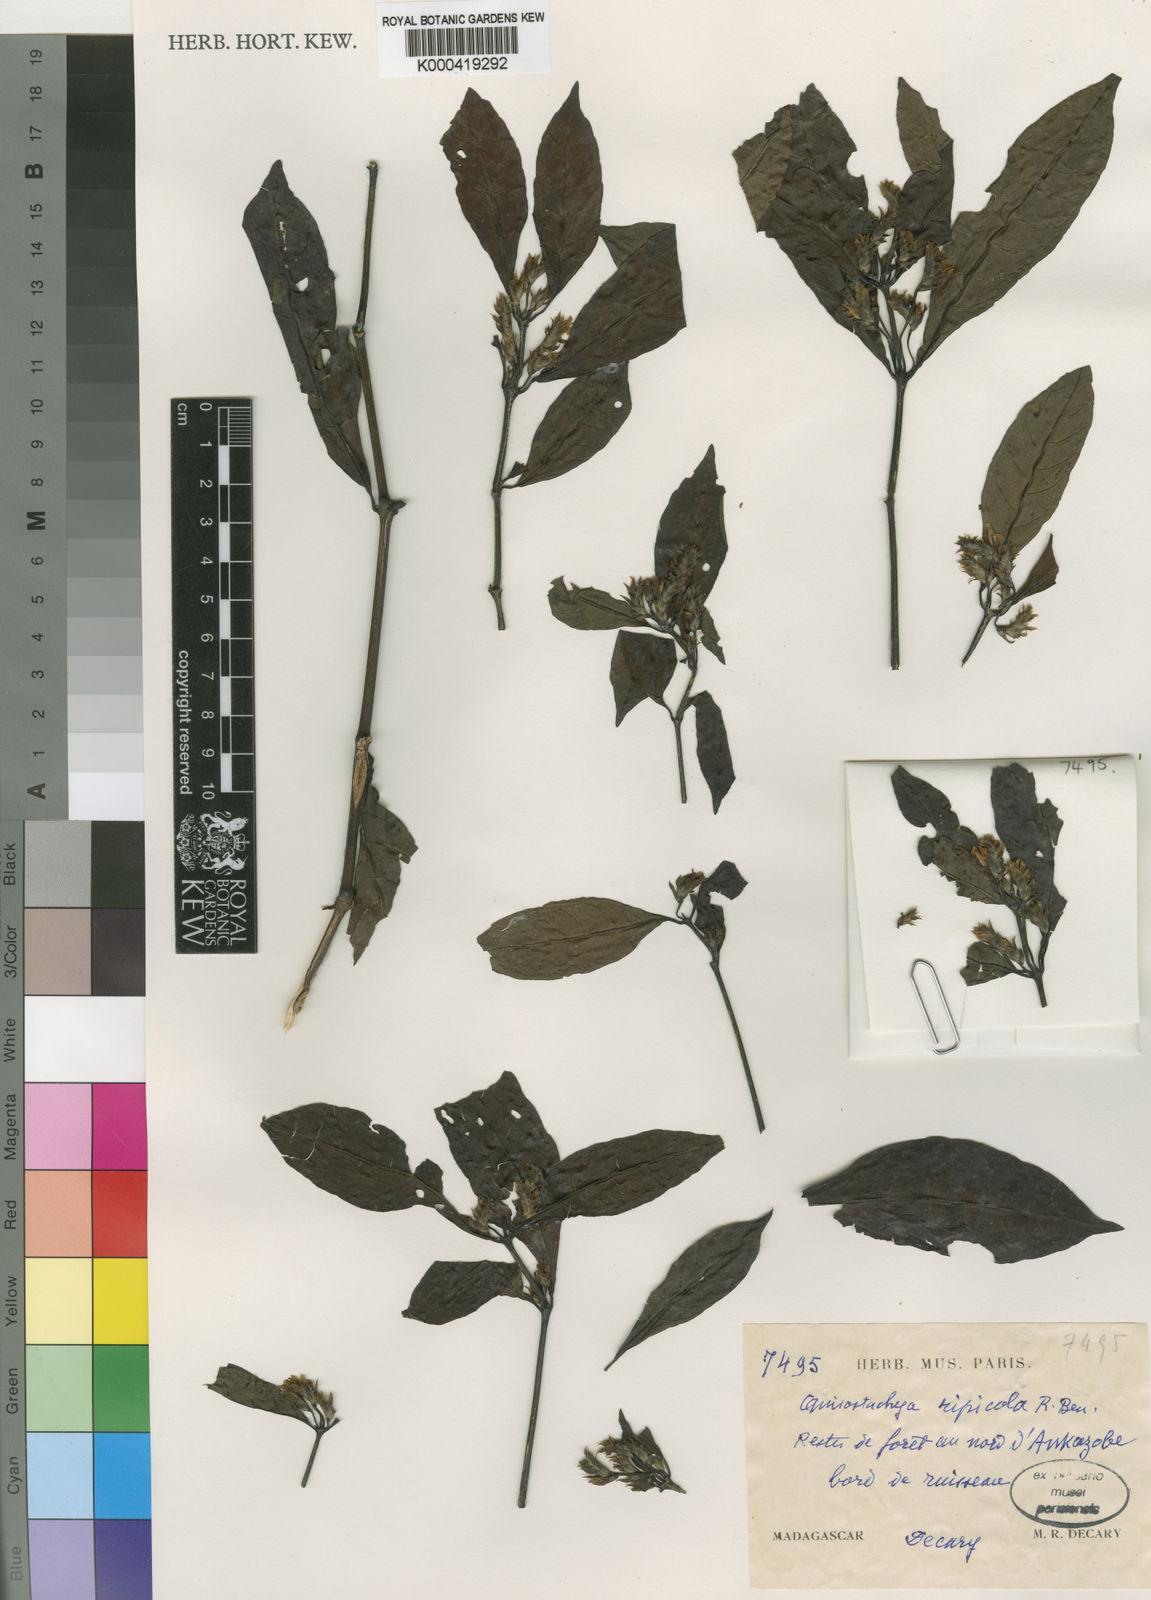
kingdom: Plantae
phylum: Tracheophyta
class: Magnoliopsida
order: Lamiales
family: Acanthaceae
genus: Justicia
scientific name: Justicia
